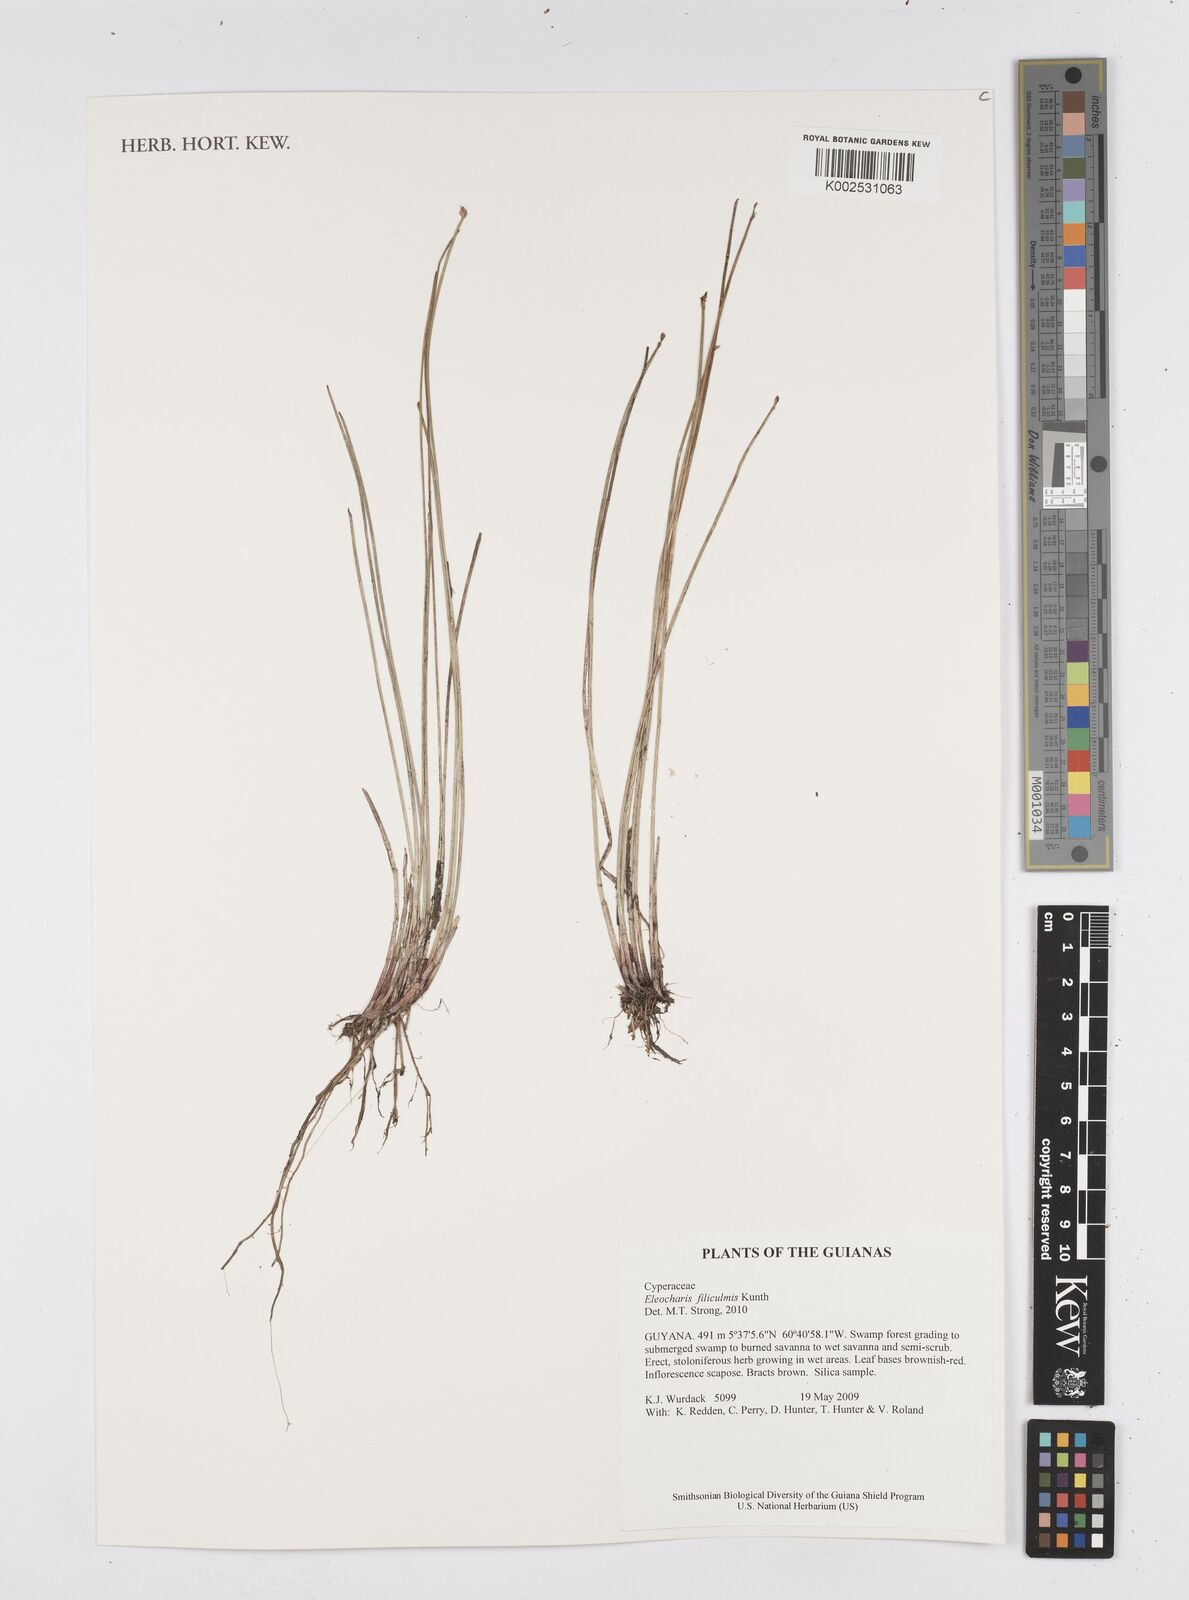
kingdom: Plantae
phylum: Tracheophyta
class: Liliopsida
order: Poales
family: Cyperaceae
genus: Eleocharis
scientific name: Eleocharis filiculmis
